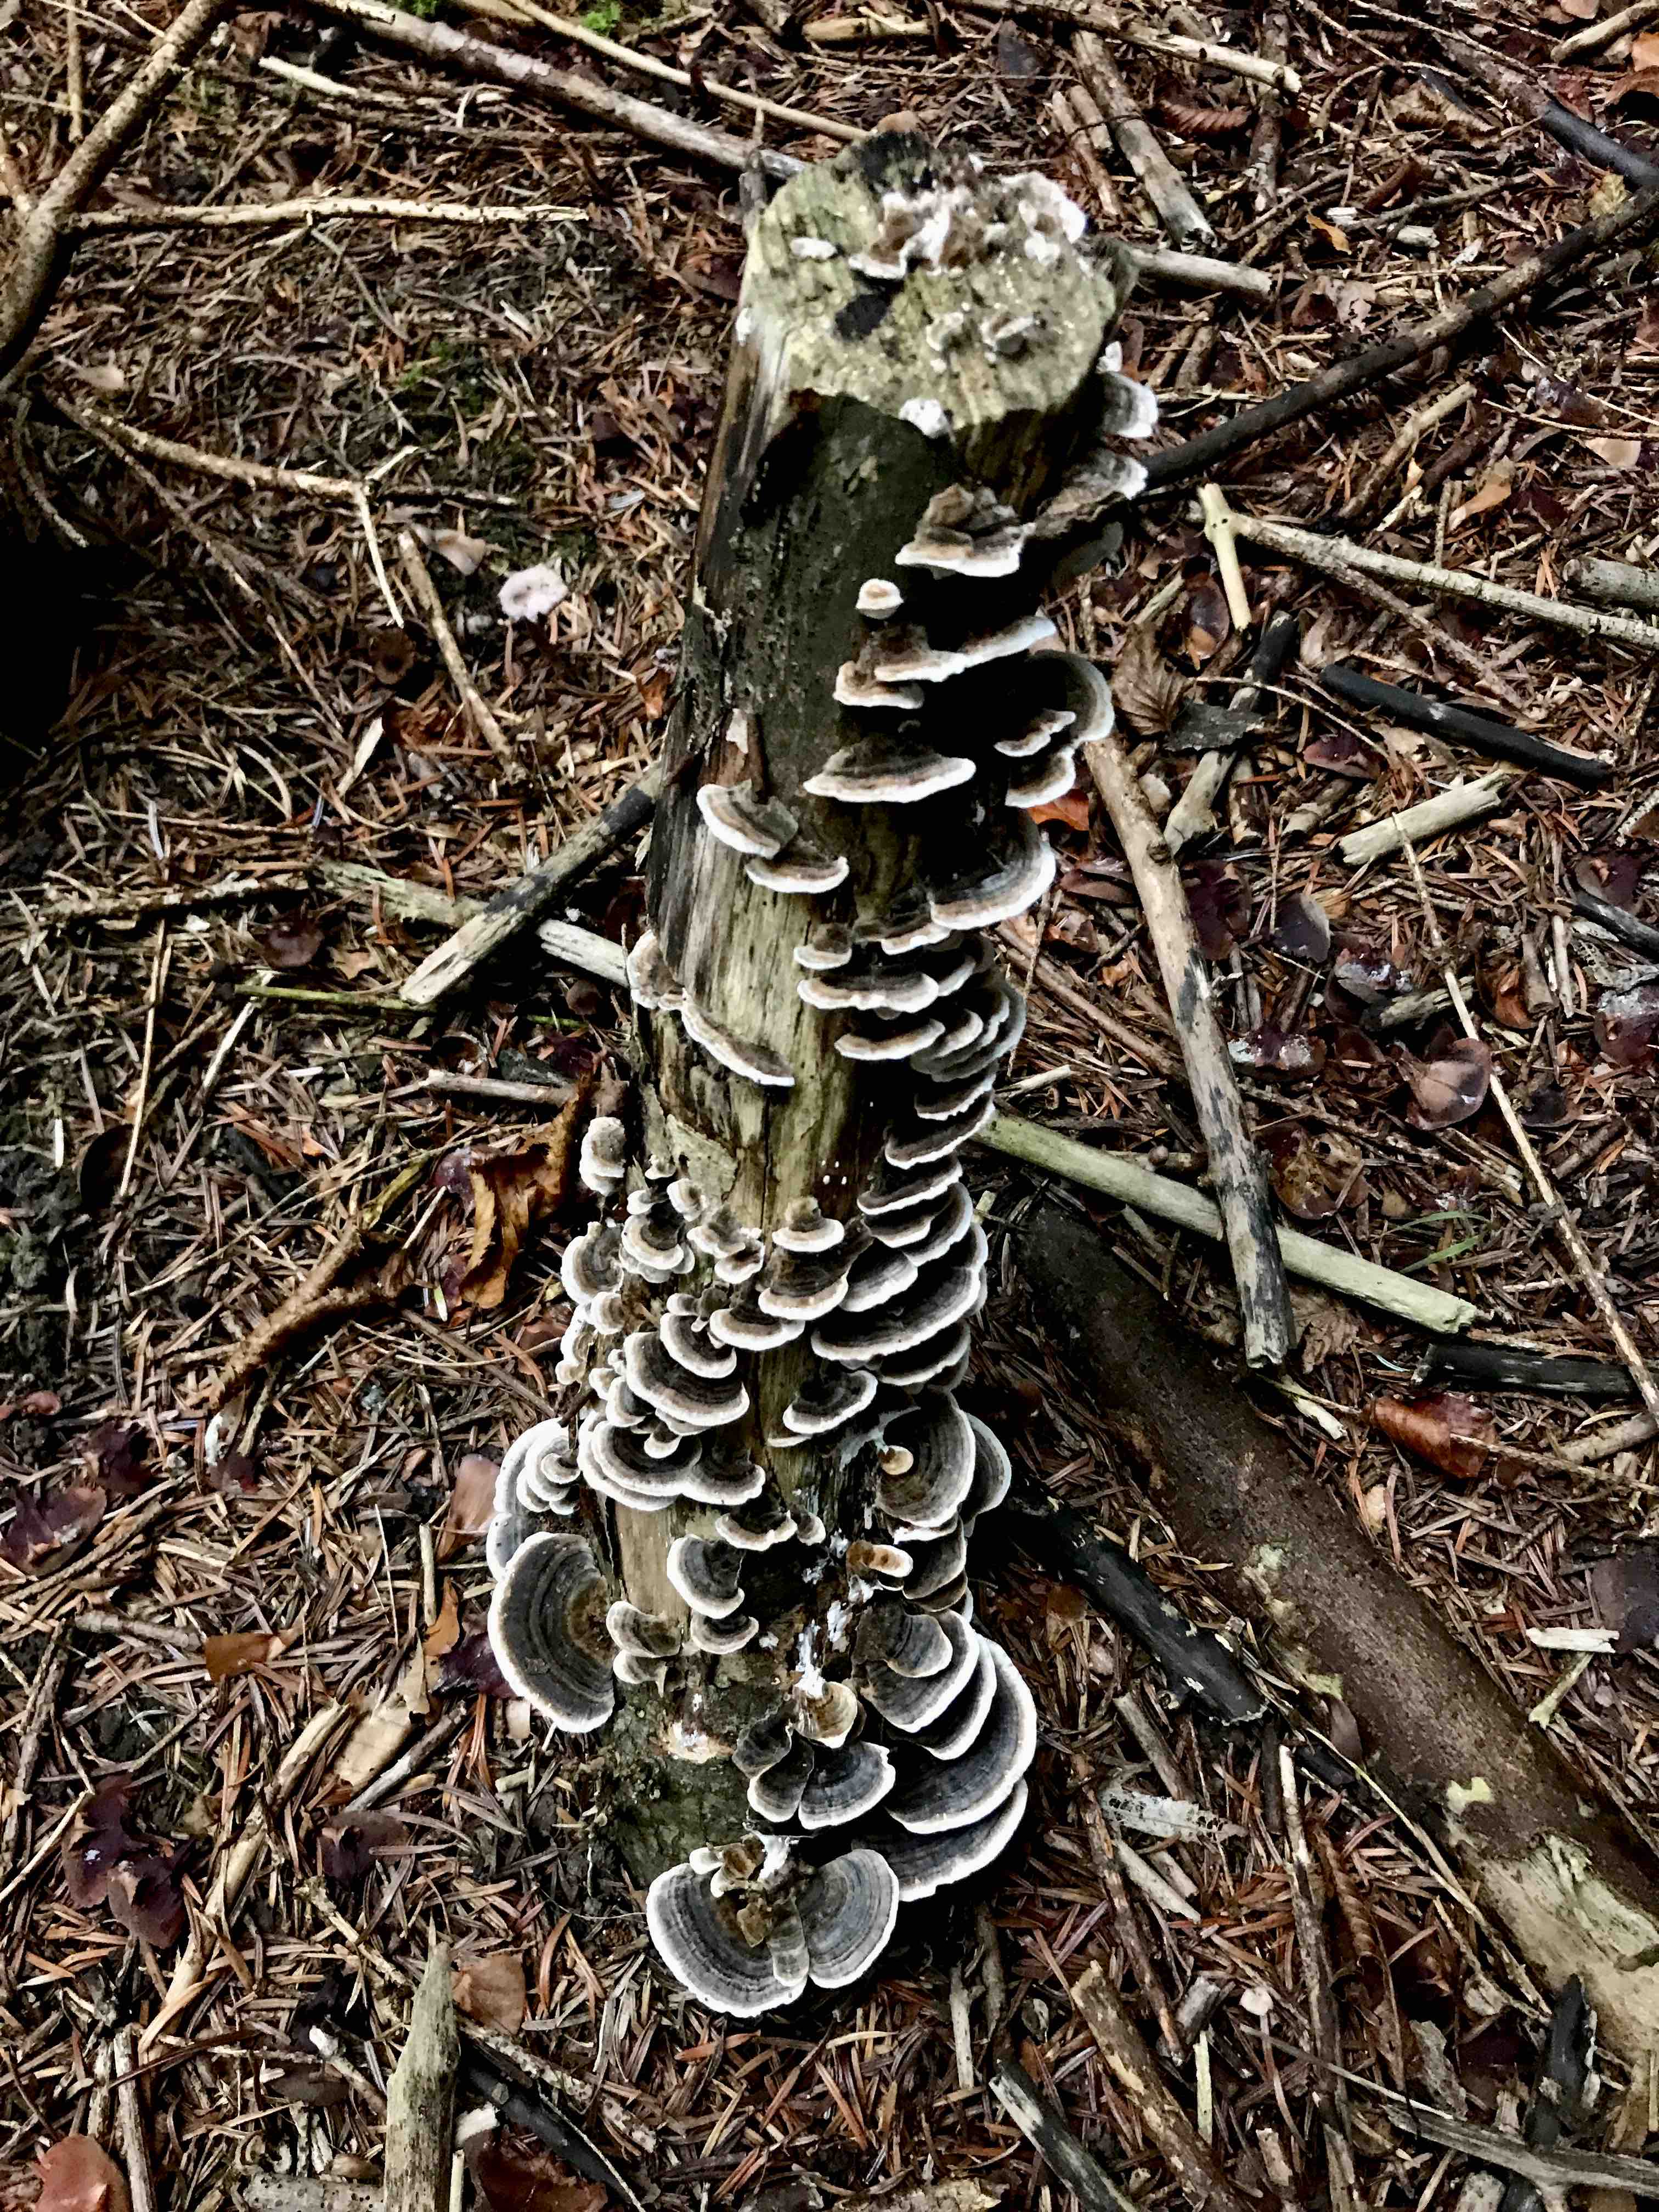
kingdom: Fungi
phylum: Basidiomycota
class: Agaricomycetes
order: Polyporales
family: Polyporaceae
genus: Trametes
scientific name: Trametes versicolor
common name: broget læderporesvamp
